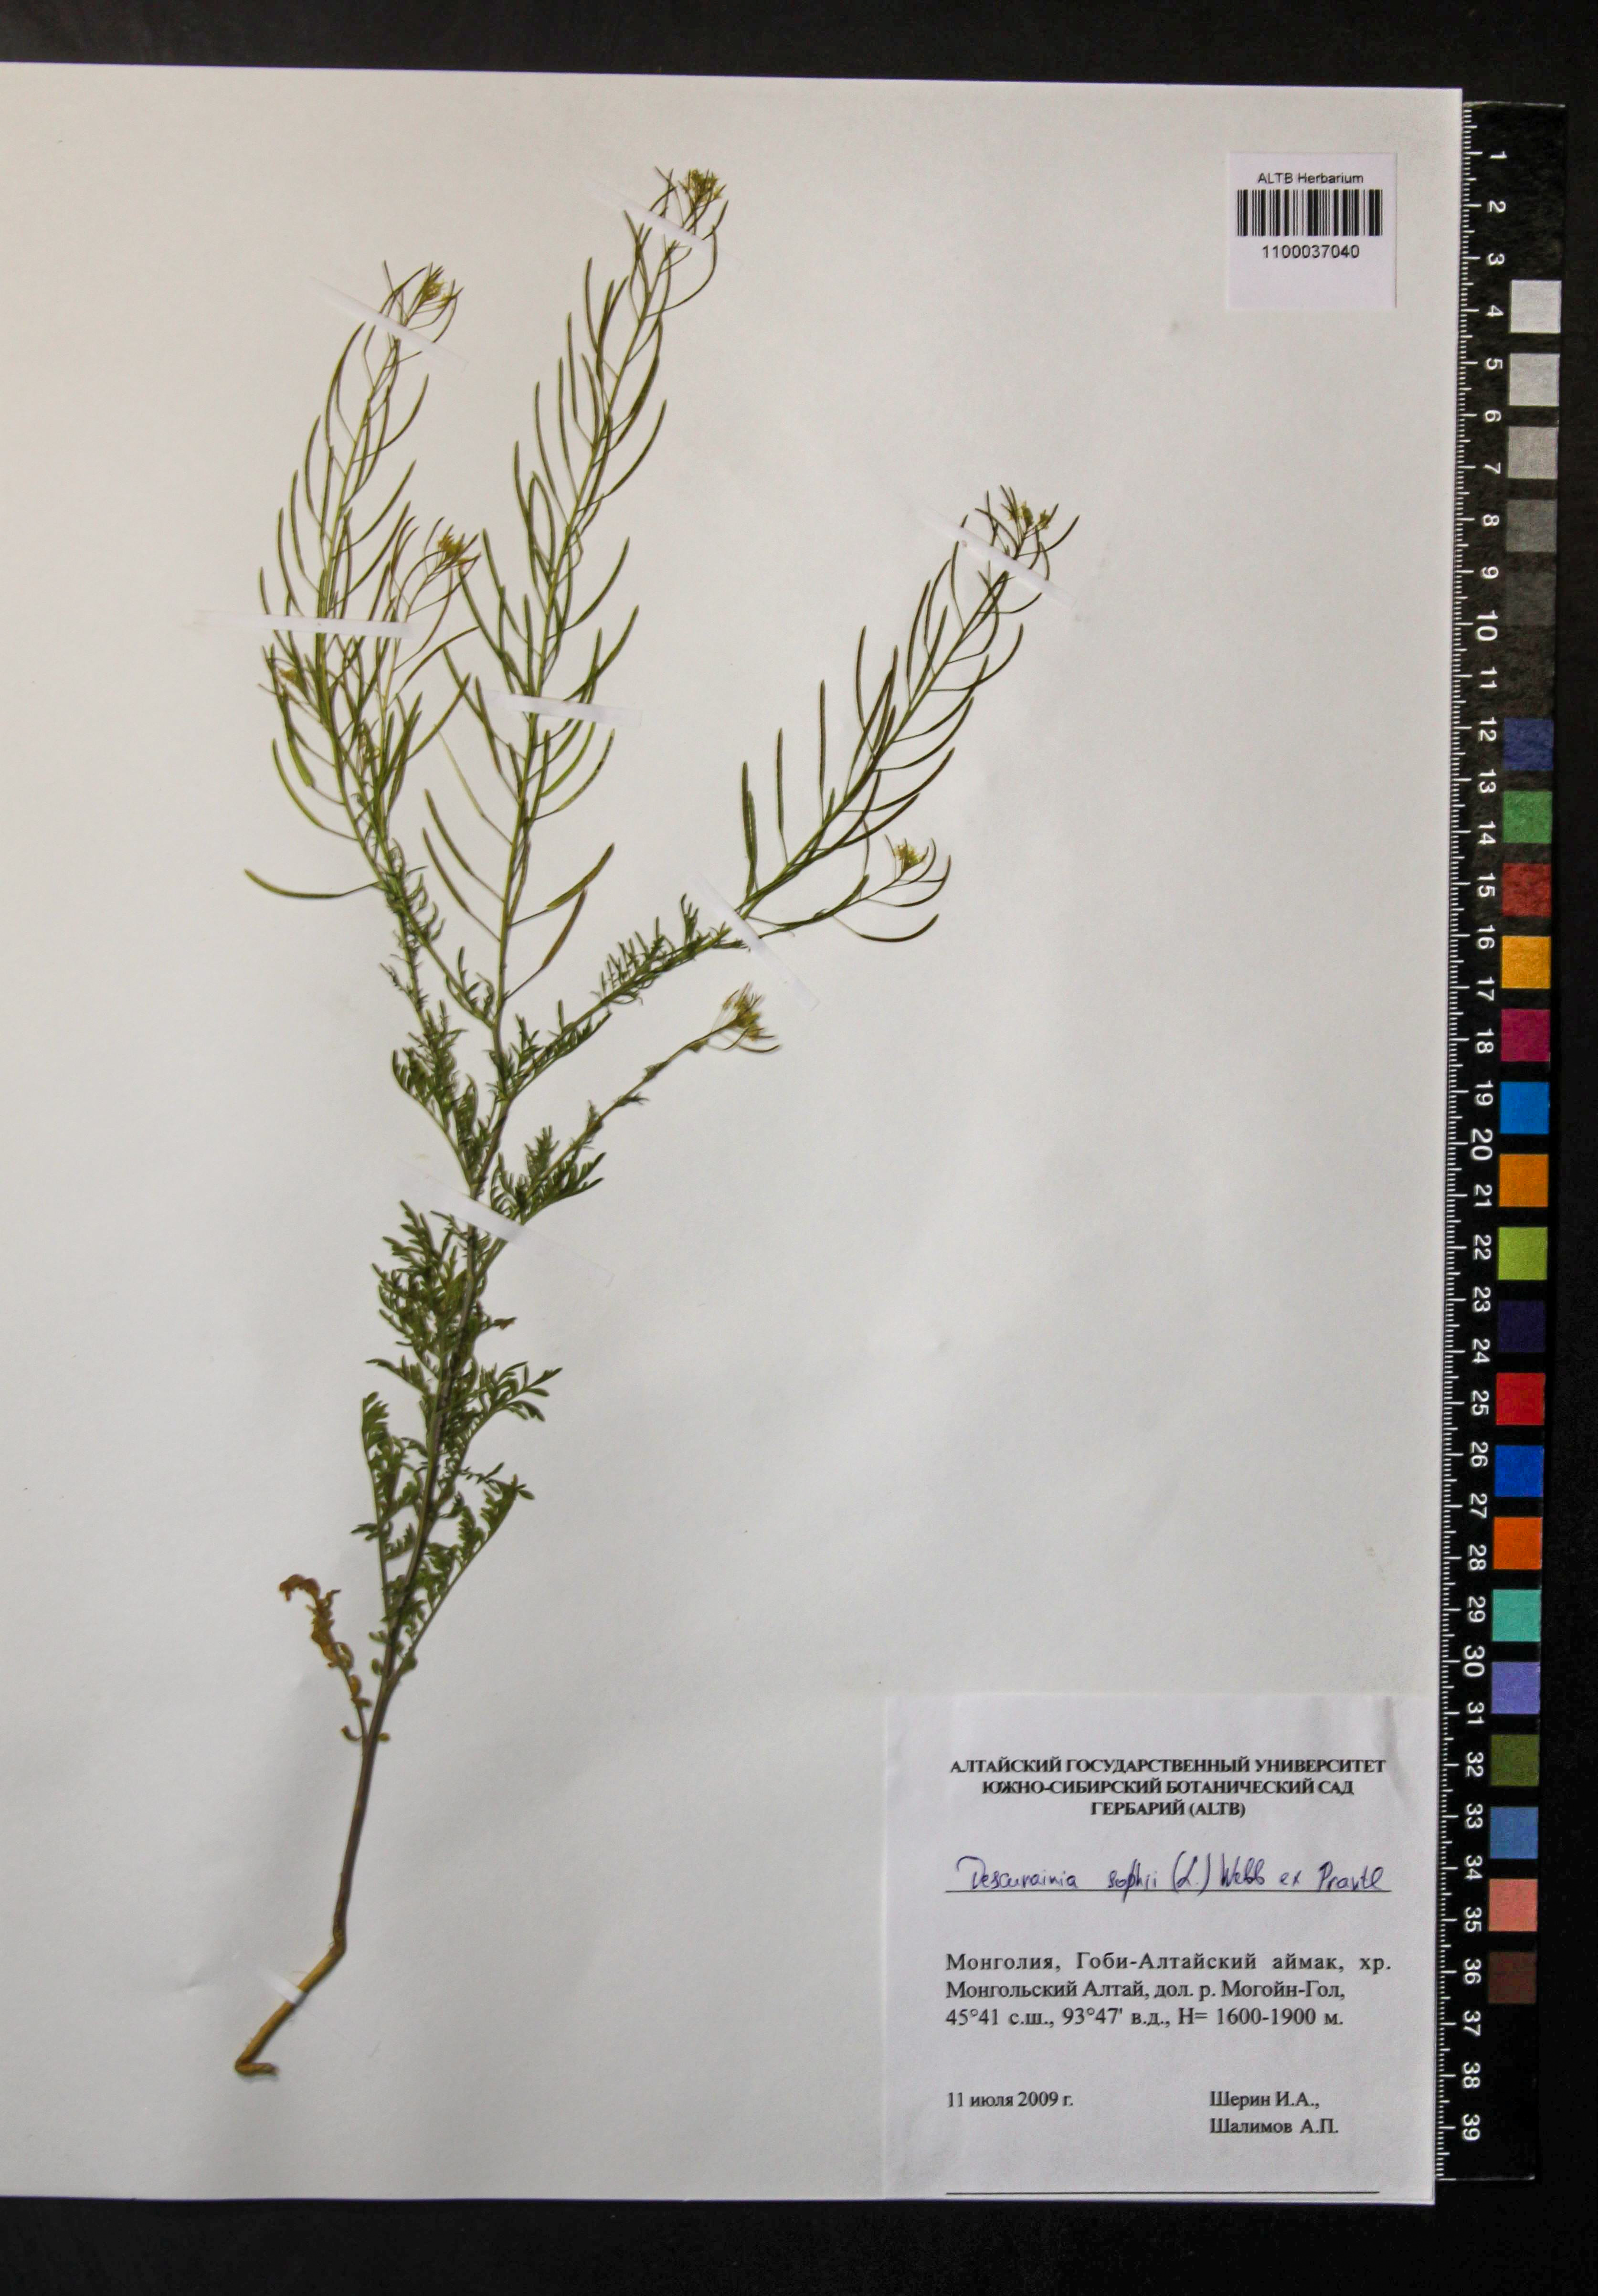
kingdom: Plantae
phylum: Tracheophyta
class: Magnoliopsida
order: Brassicales
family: Brassicaceae
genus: Descurainia
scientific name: Descurainia sophia
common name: Flixweed
